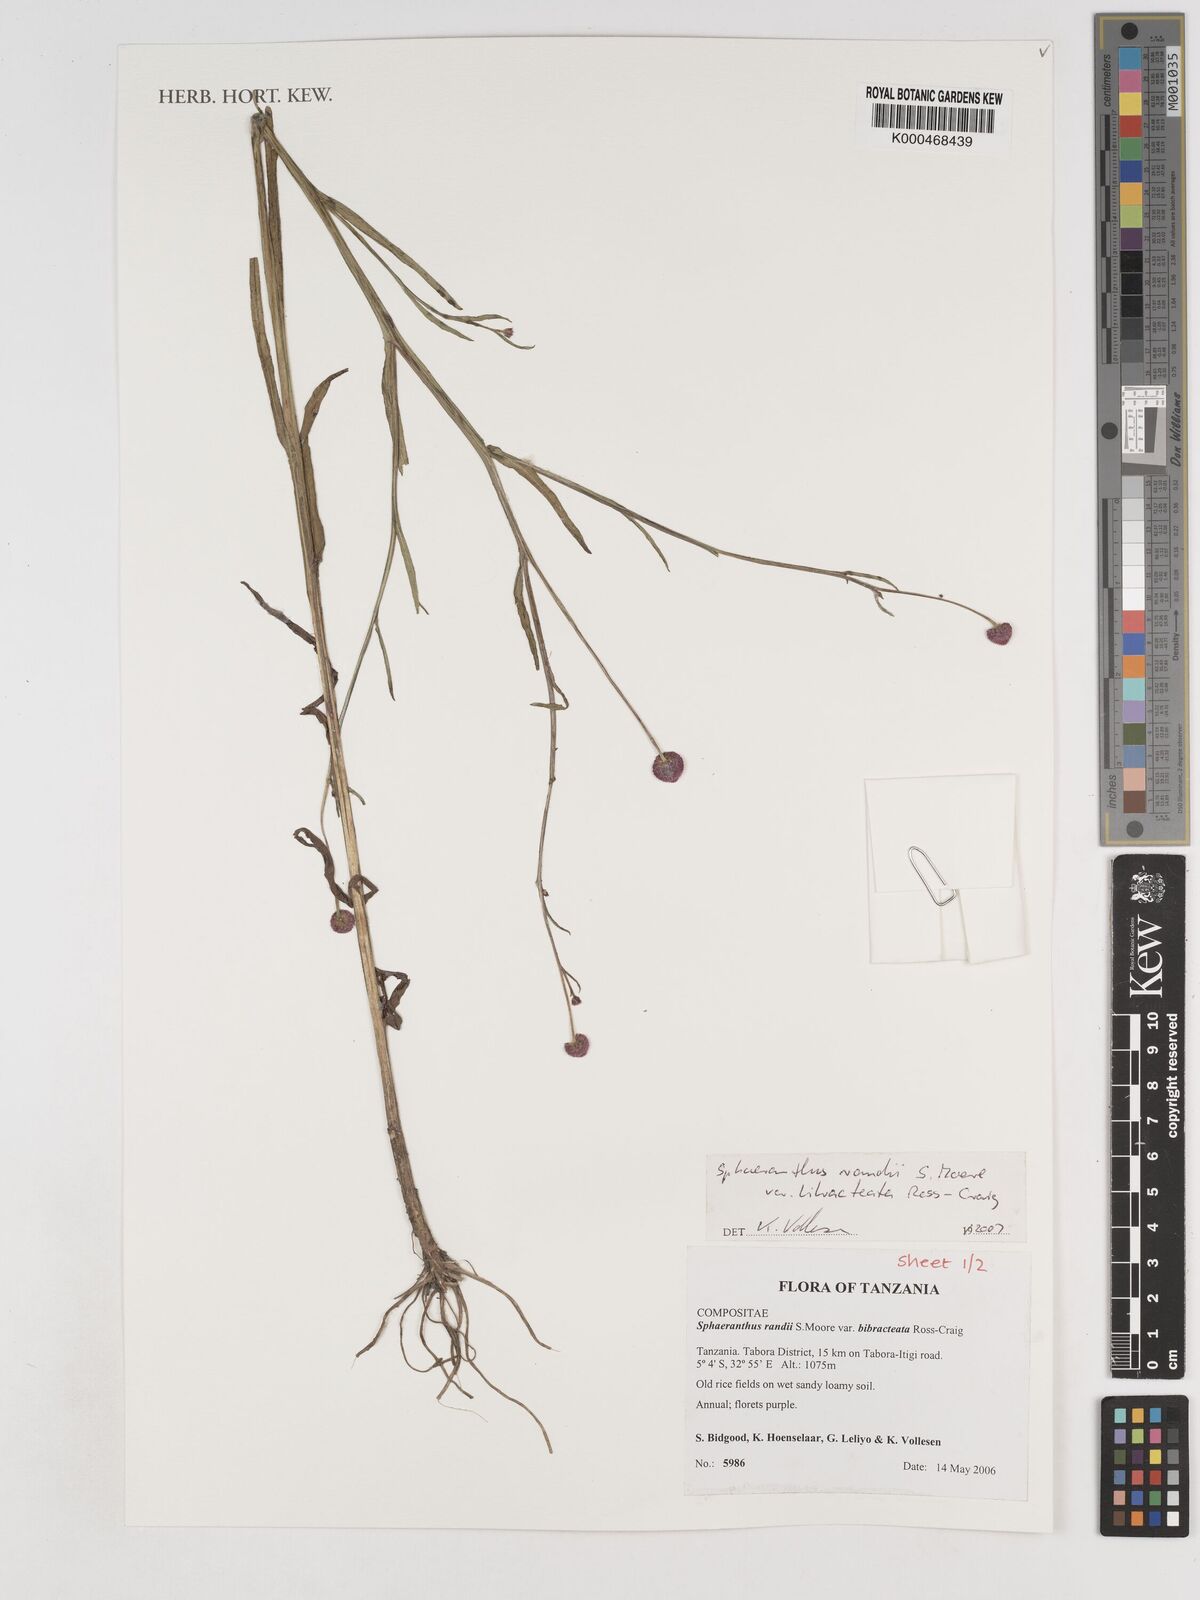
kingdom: Plantae
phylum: Tracheophyta
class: Magnoliopsida
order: Asterales
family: Asteraceae
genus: Sphaeranthus
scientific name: Sphaeranthus randii
